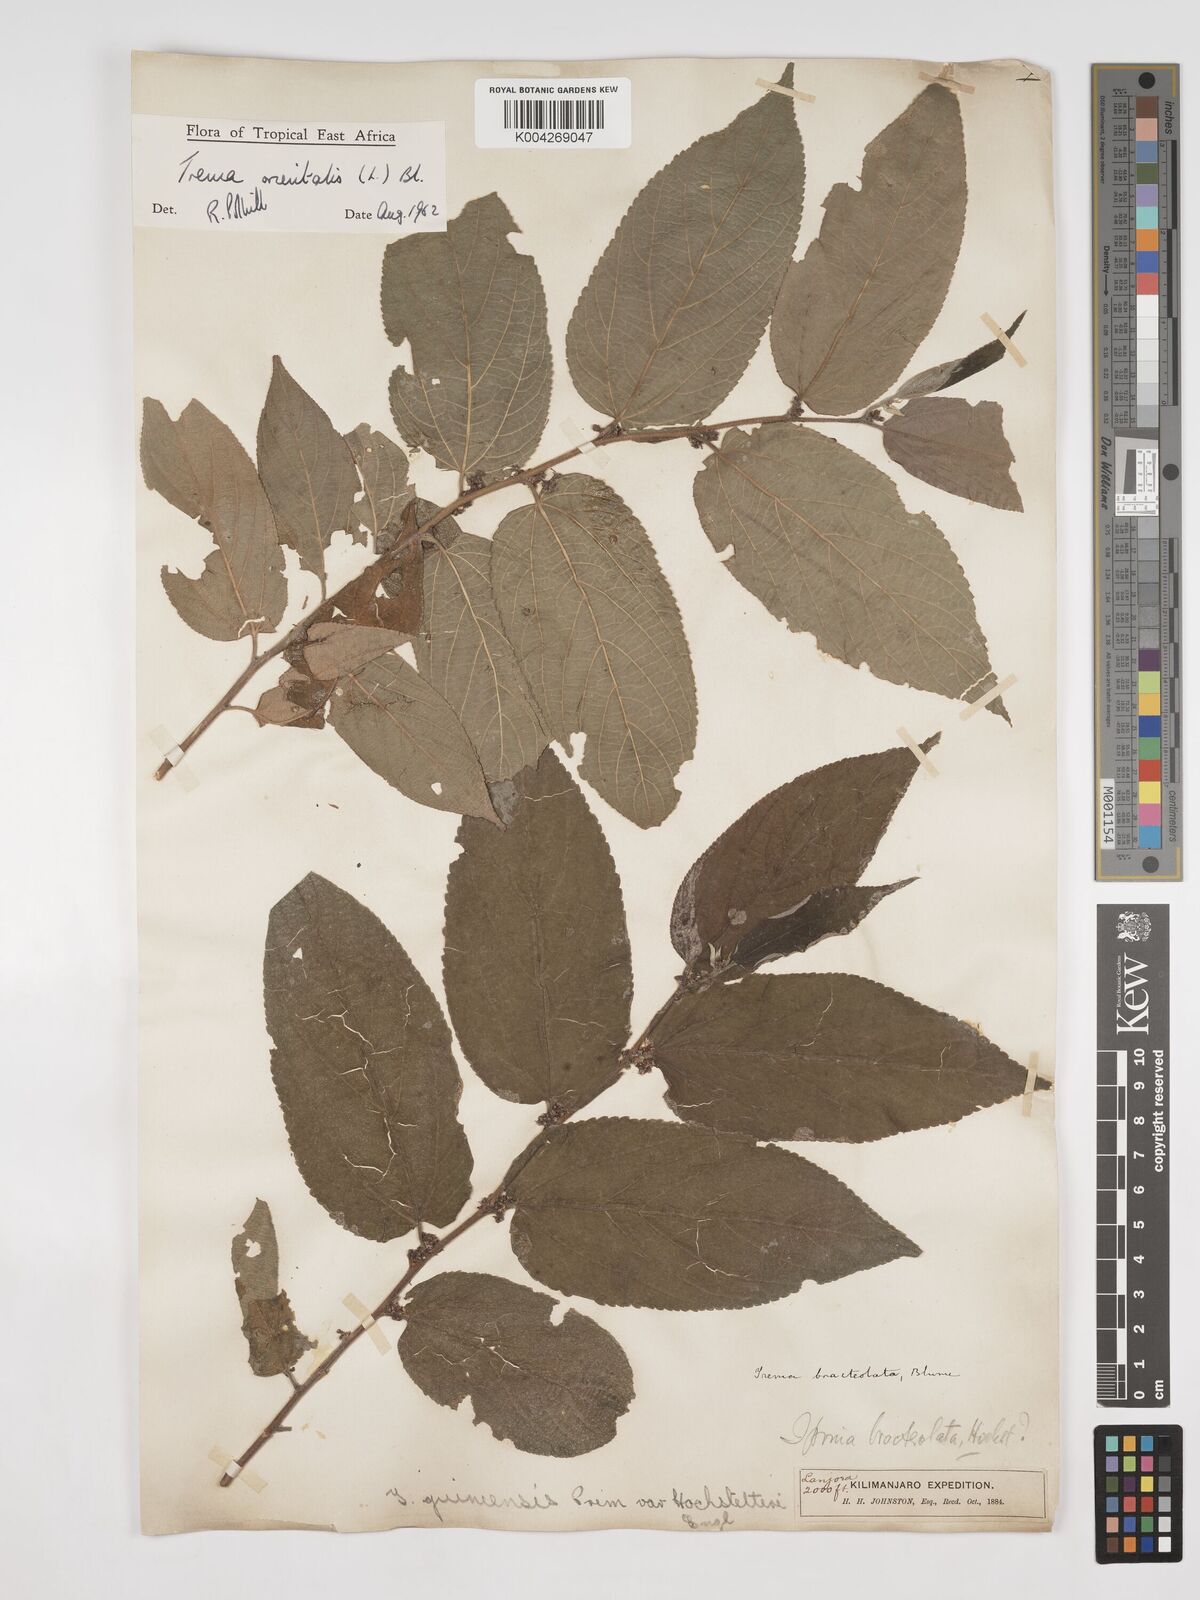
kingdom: Plantae
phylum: Tracheophyta
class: Magnoliopsida
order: Rosales
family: Cannabaceae
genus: Trema
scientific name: Trema orientale
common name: Indian charcoal tree
